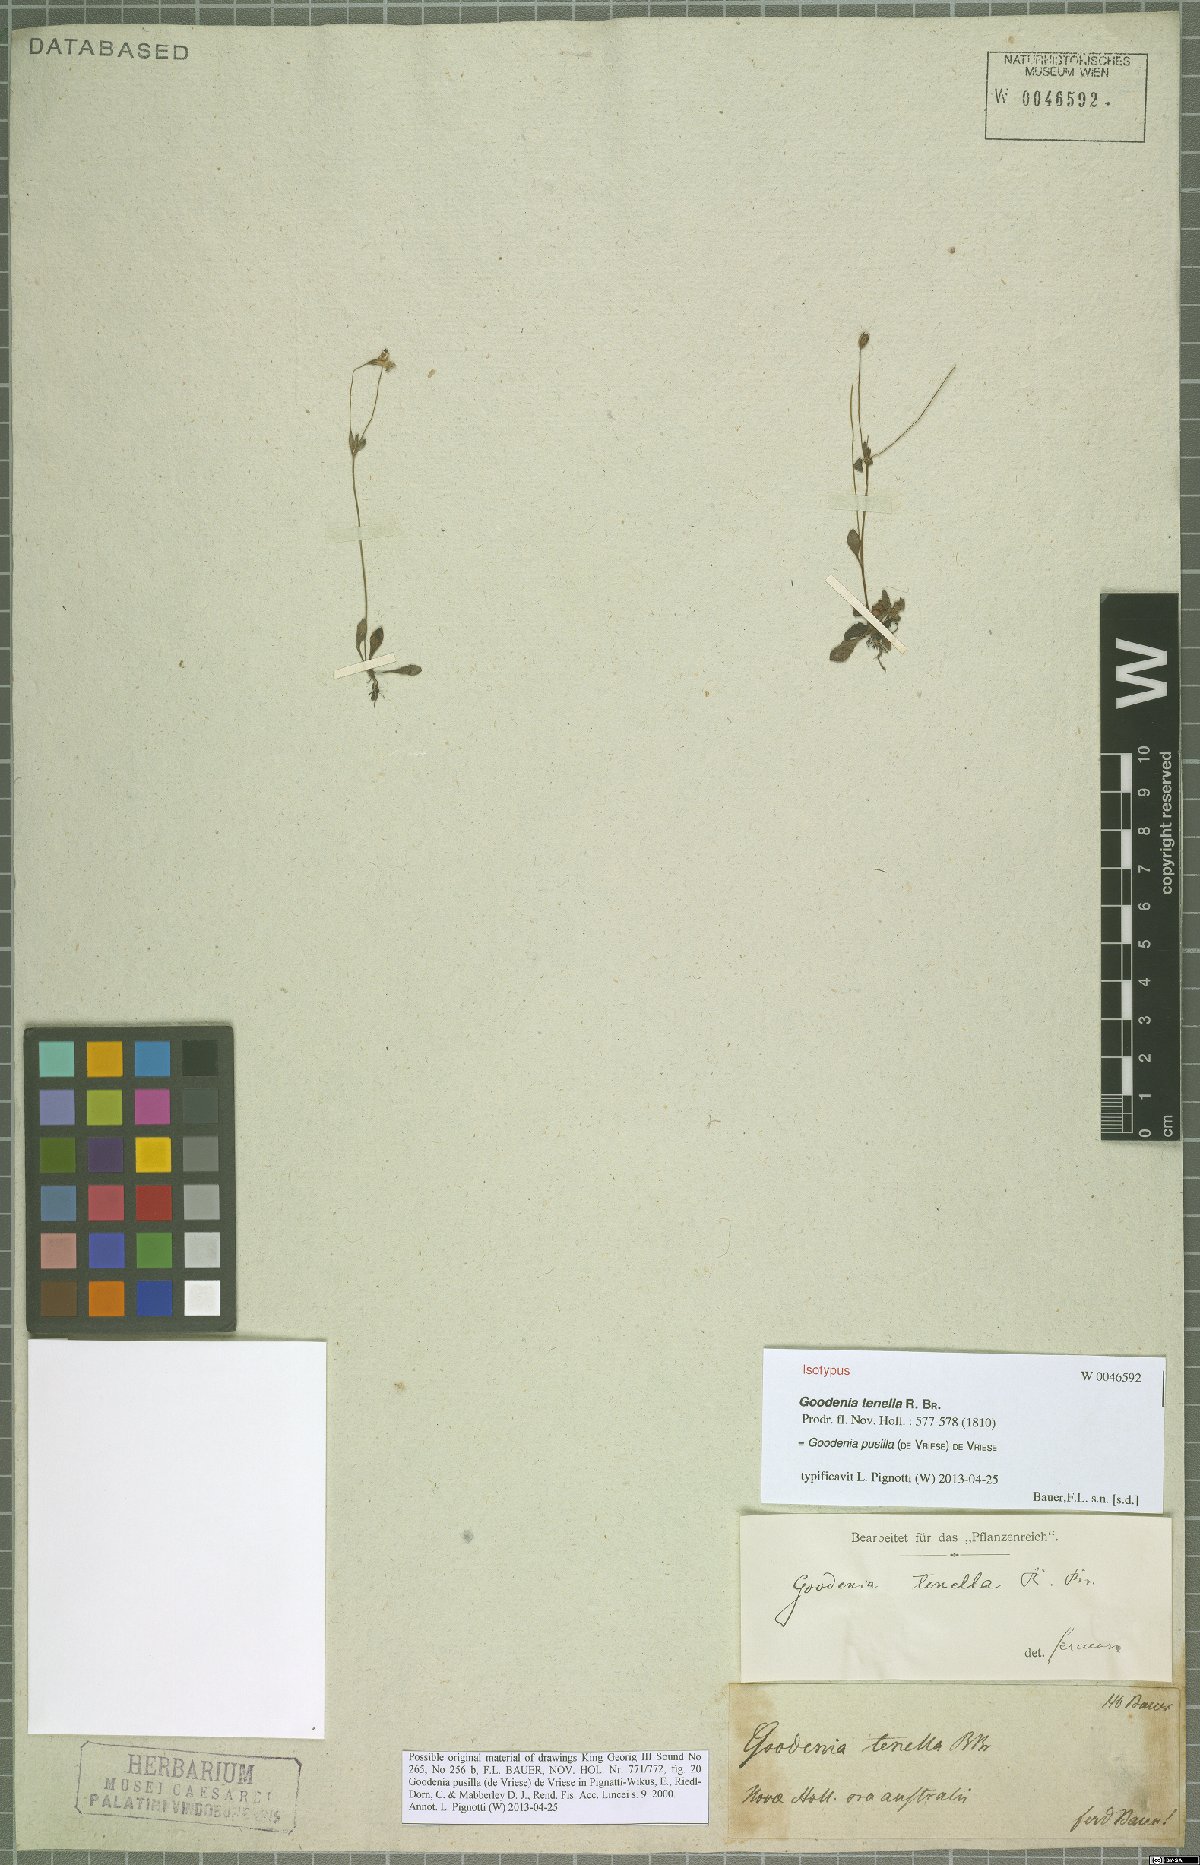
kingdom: Plantae
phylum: Tracheophyta
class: Magnoliopsida
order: Asterales
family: Goodeniaceae
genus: Goodenia
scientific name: Goodenia pusilla
